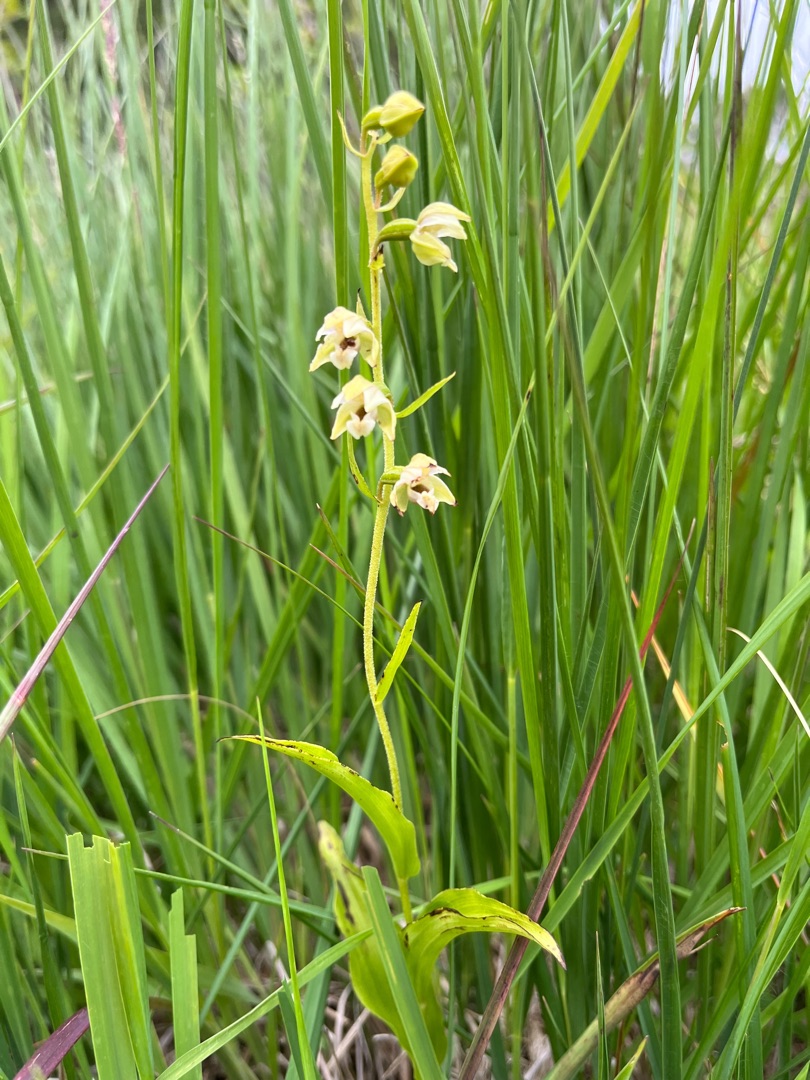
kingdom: Plantae
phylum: Tracheophyta
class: Liliopsida
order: Asparagales
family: Orchidaceae
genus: Epipactis
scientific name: Epipactis helleborine
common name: Skov-hullæbe
